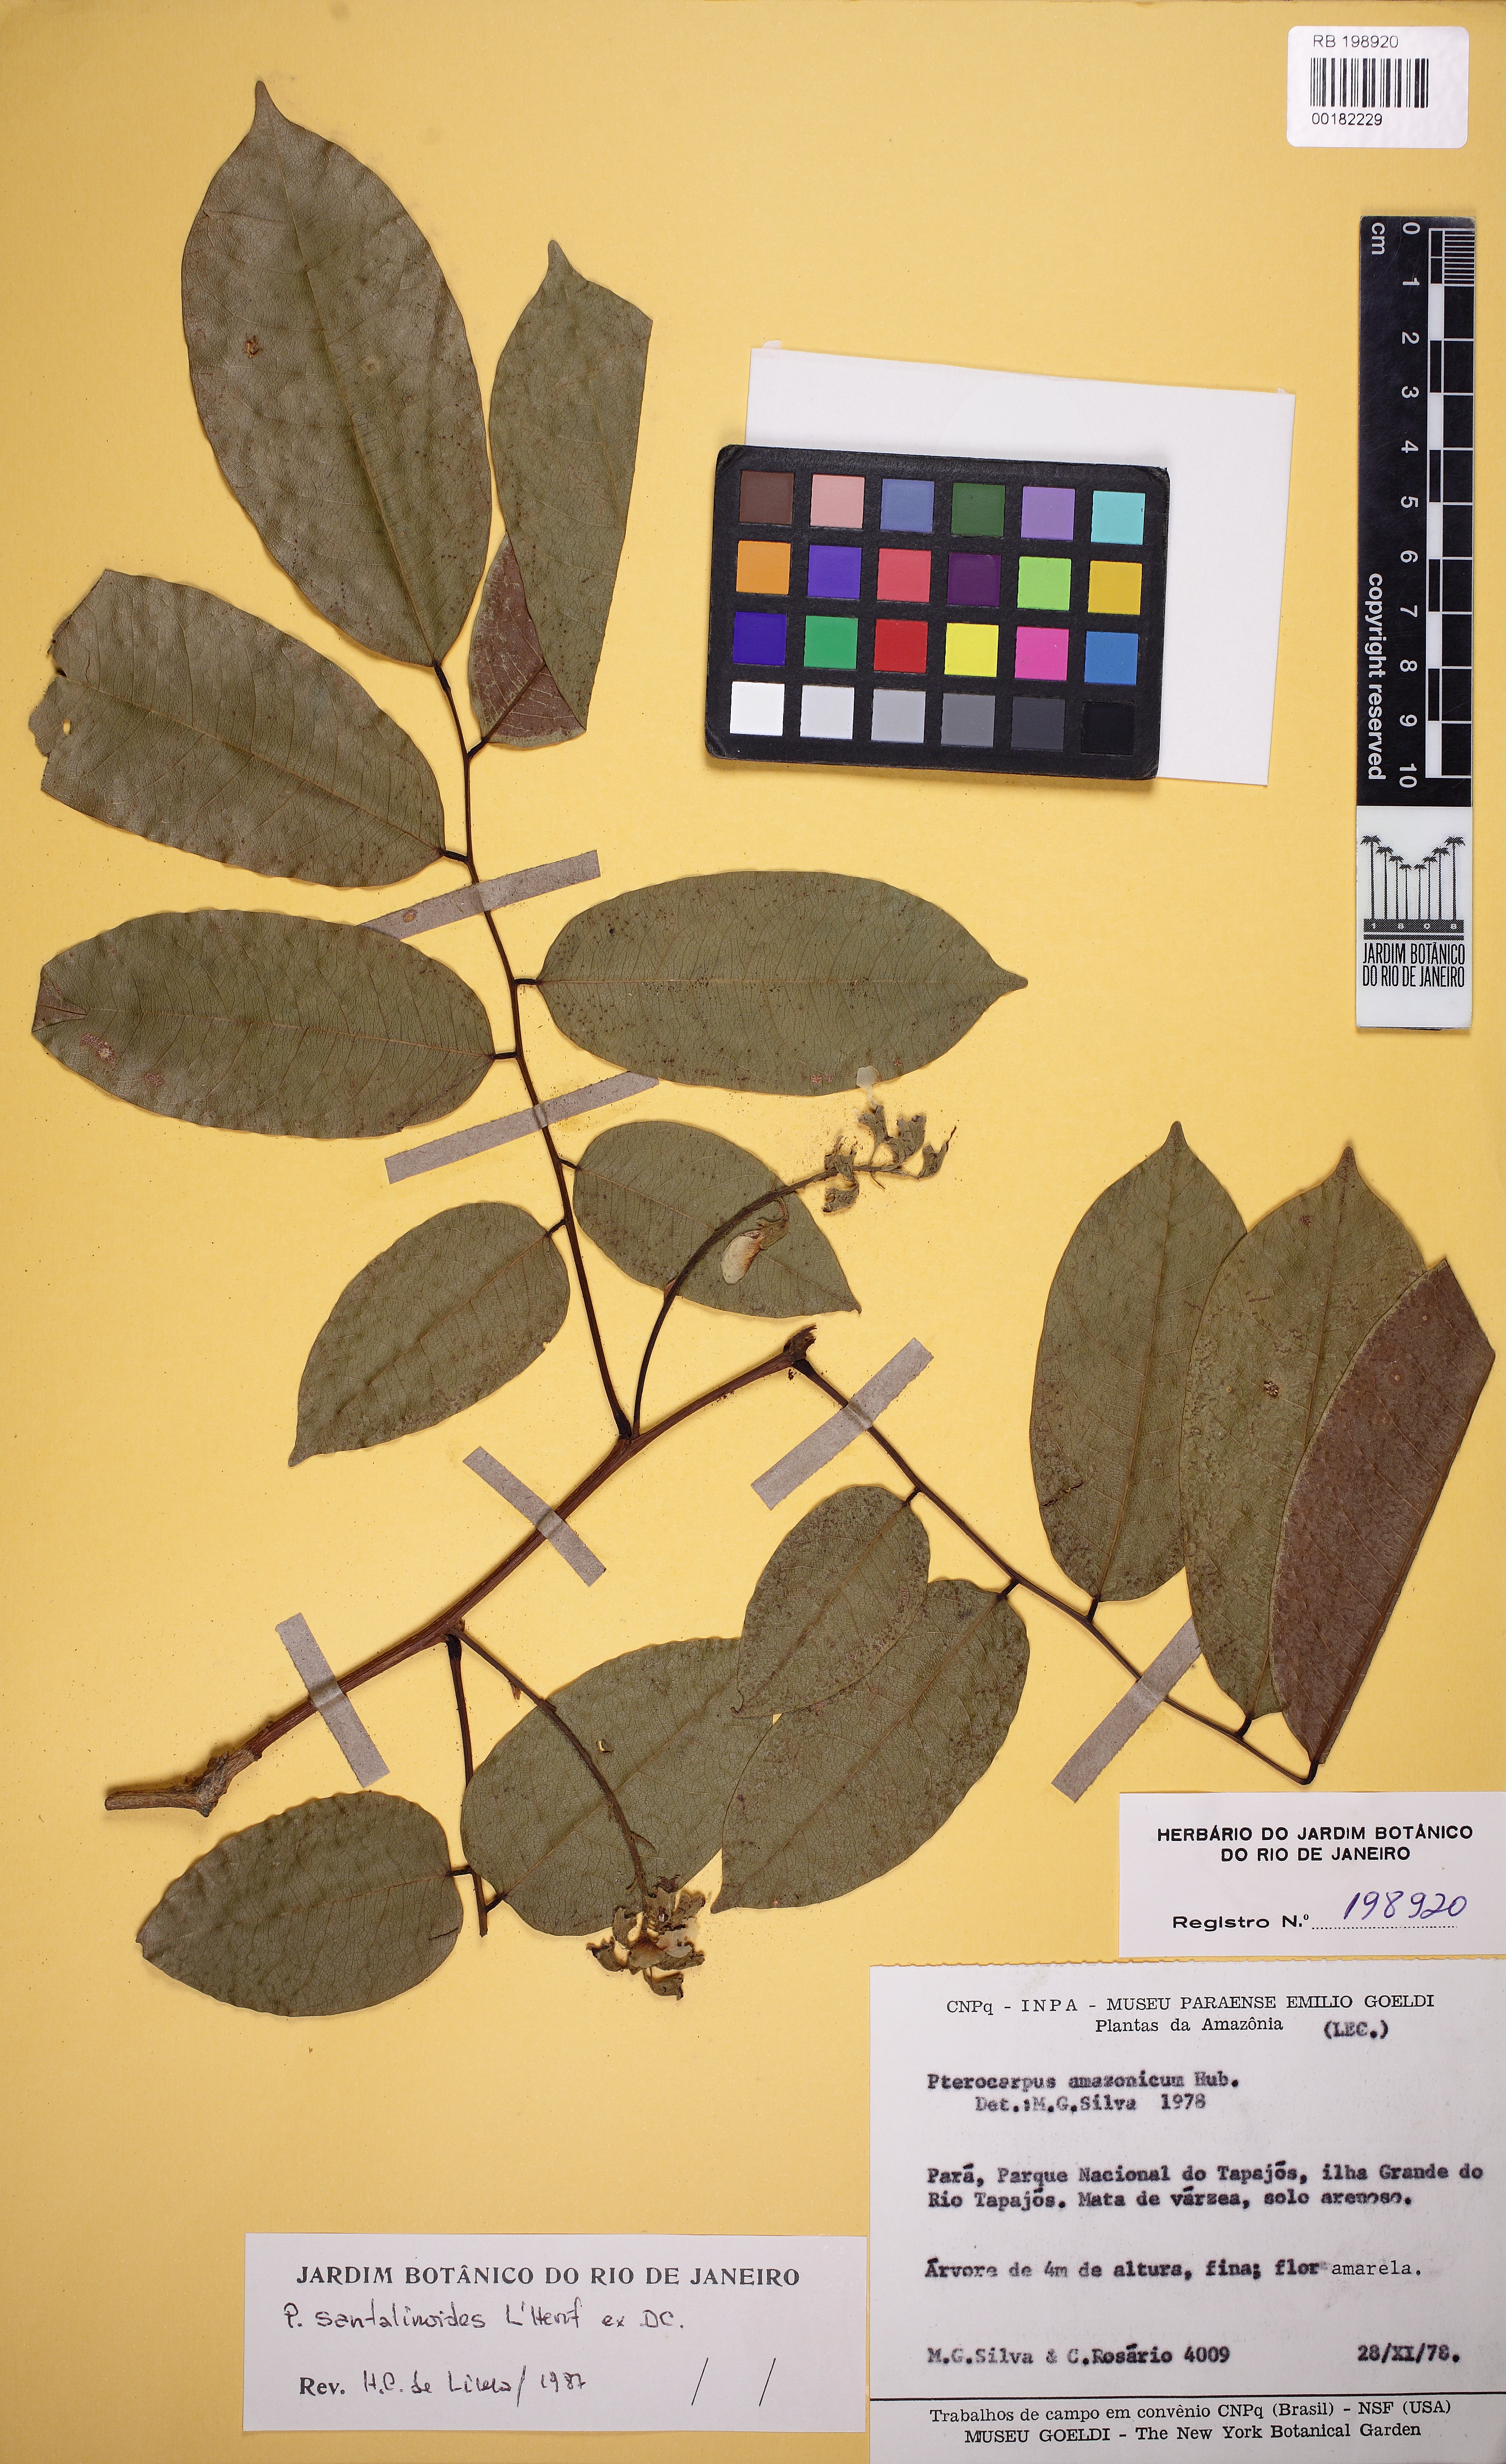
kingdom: Plantae
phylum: Tracheophyta
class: Magnoliopsida
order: Fabales
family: Fabaceae
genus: Pterocarpus
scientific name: Pterocarpus santalinoides
